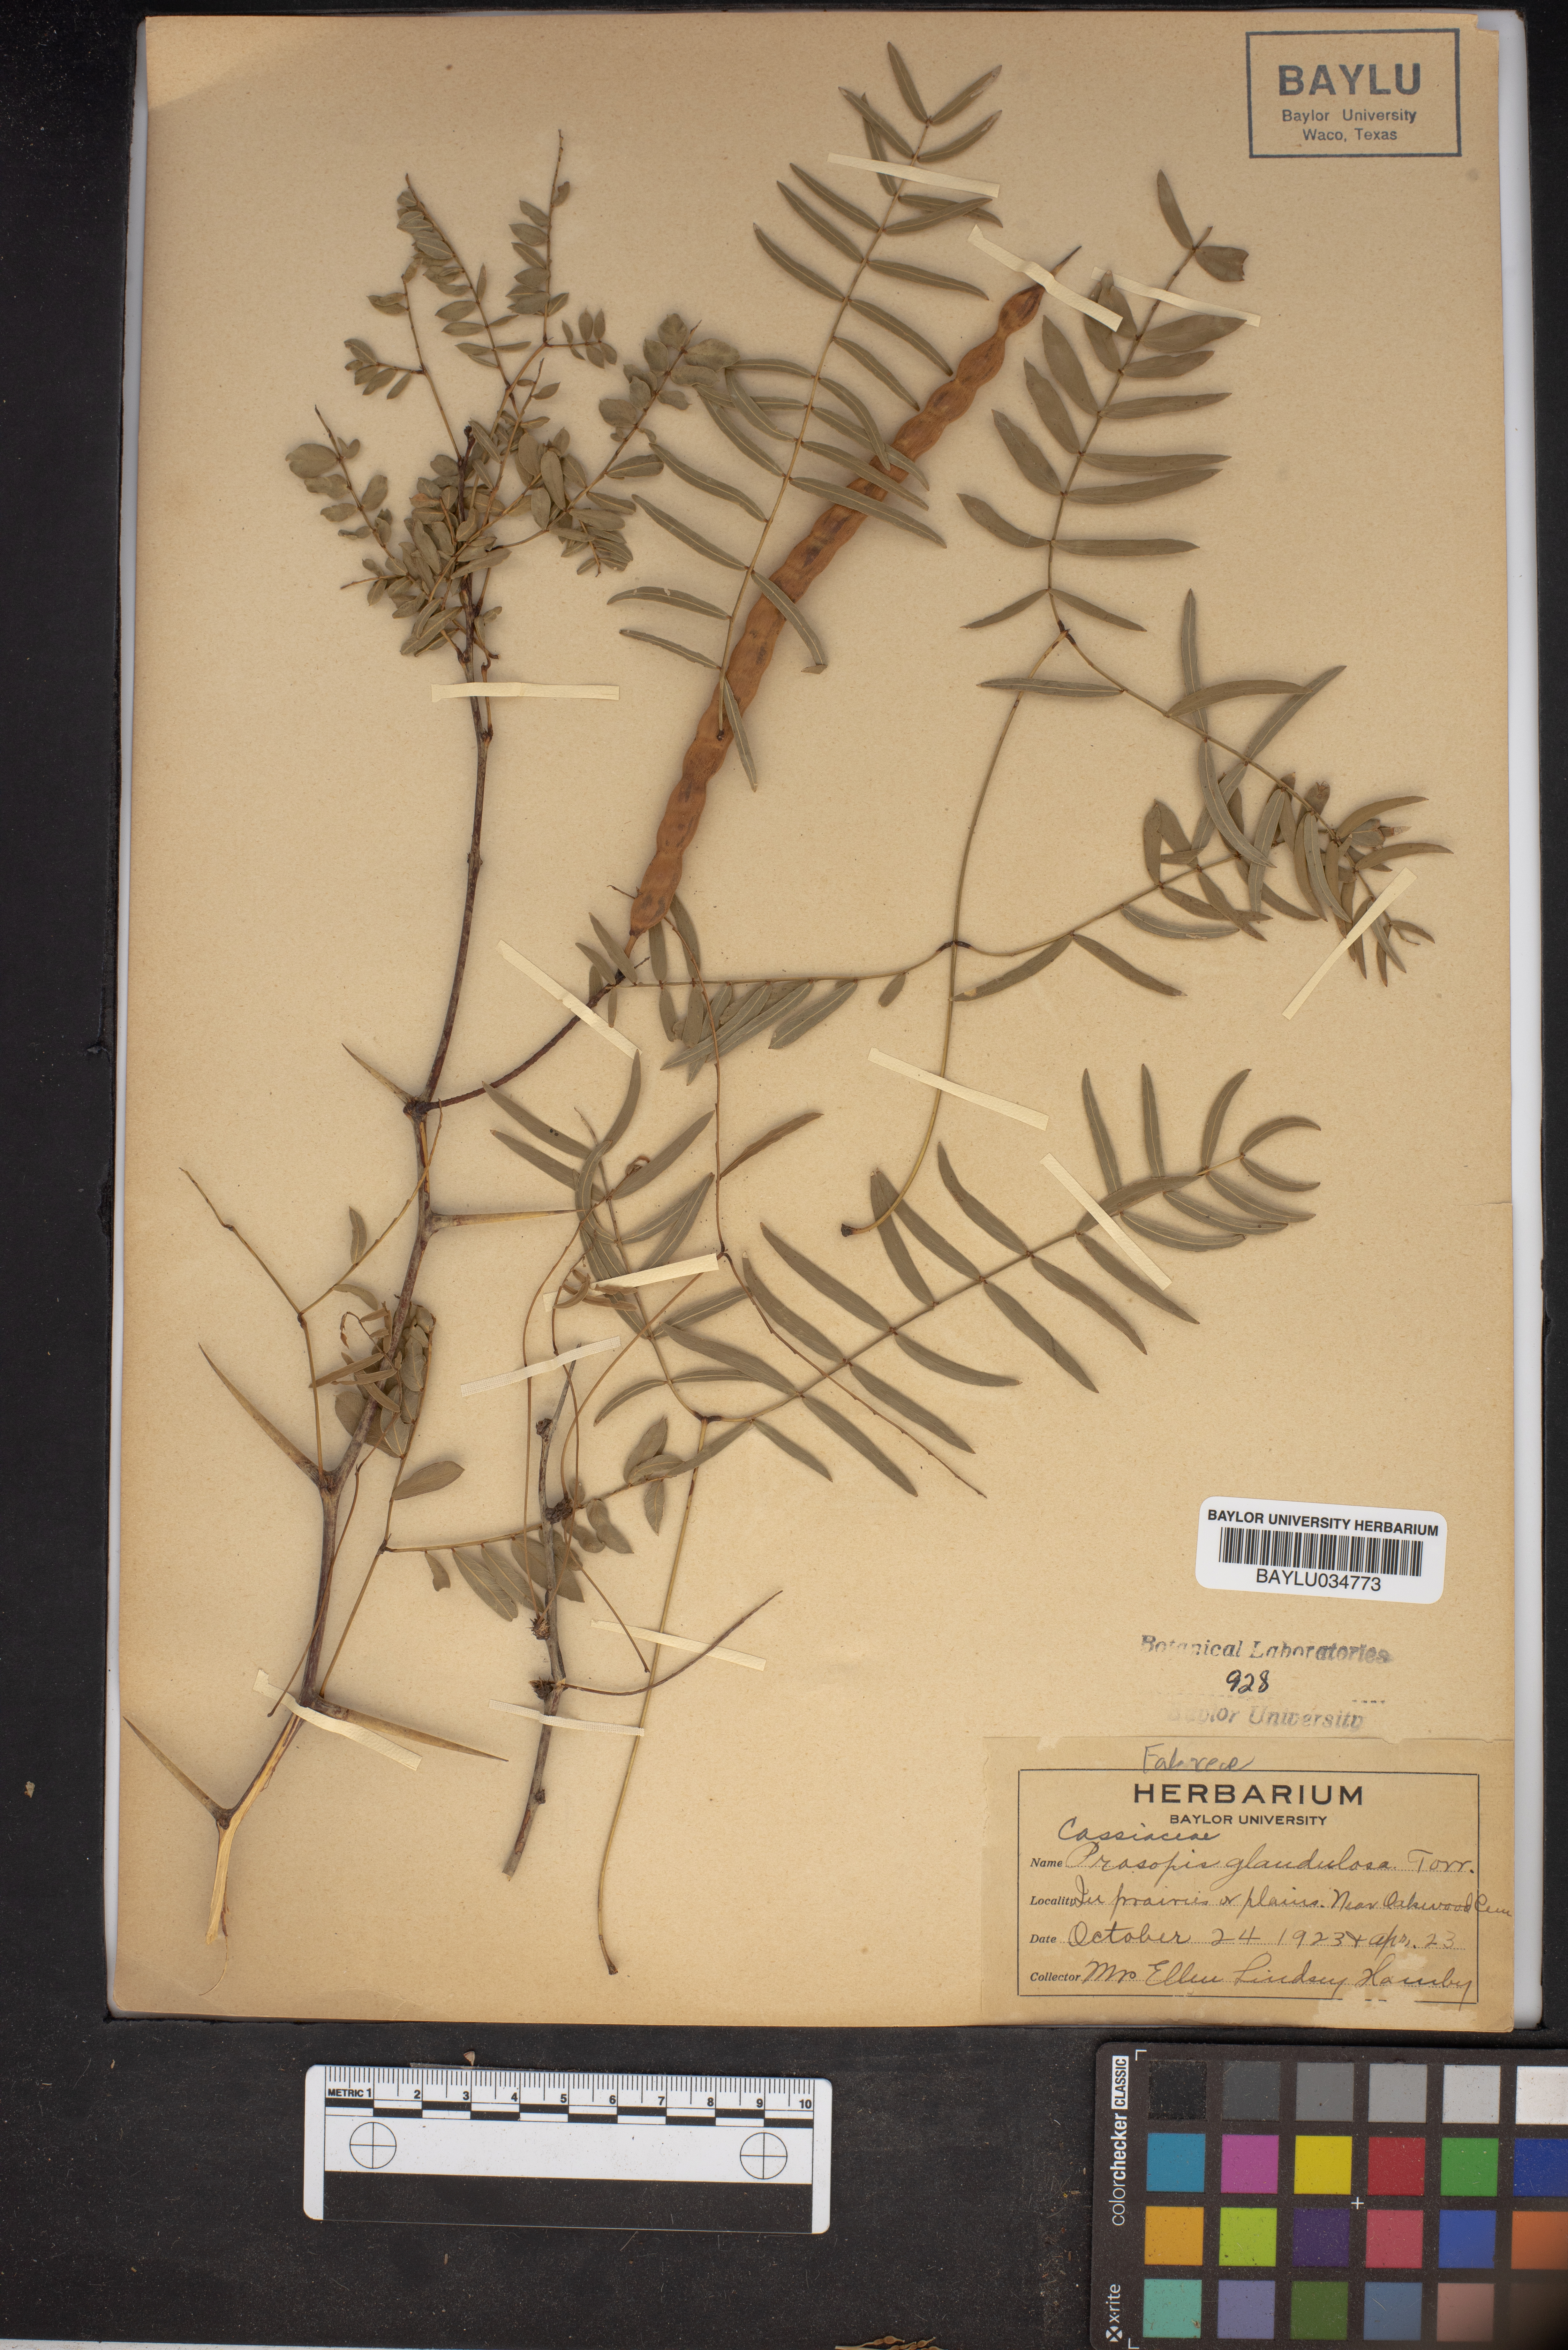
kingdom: Plantae
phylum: Tracheophyta
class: Magnoliopsida
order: Fabales
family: Fabaceae
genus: Prosopis
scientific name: Prosopis glandulosa
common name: Honey mesquite
